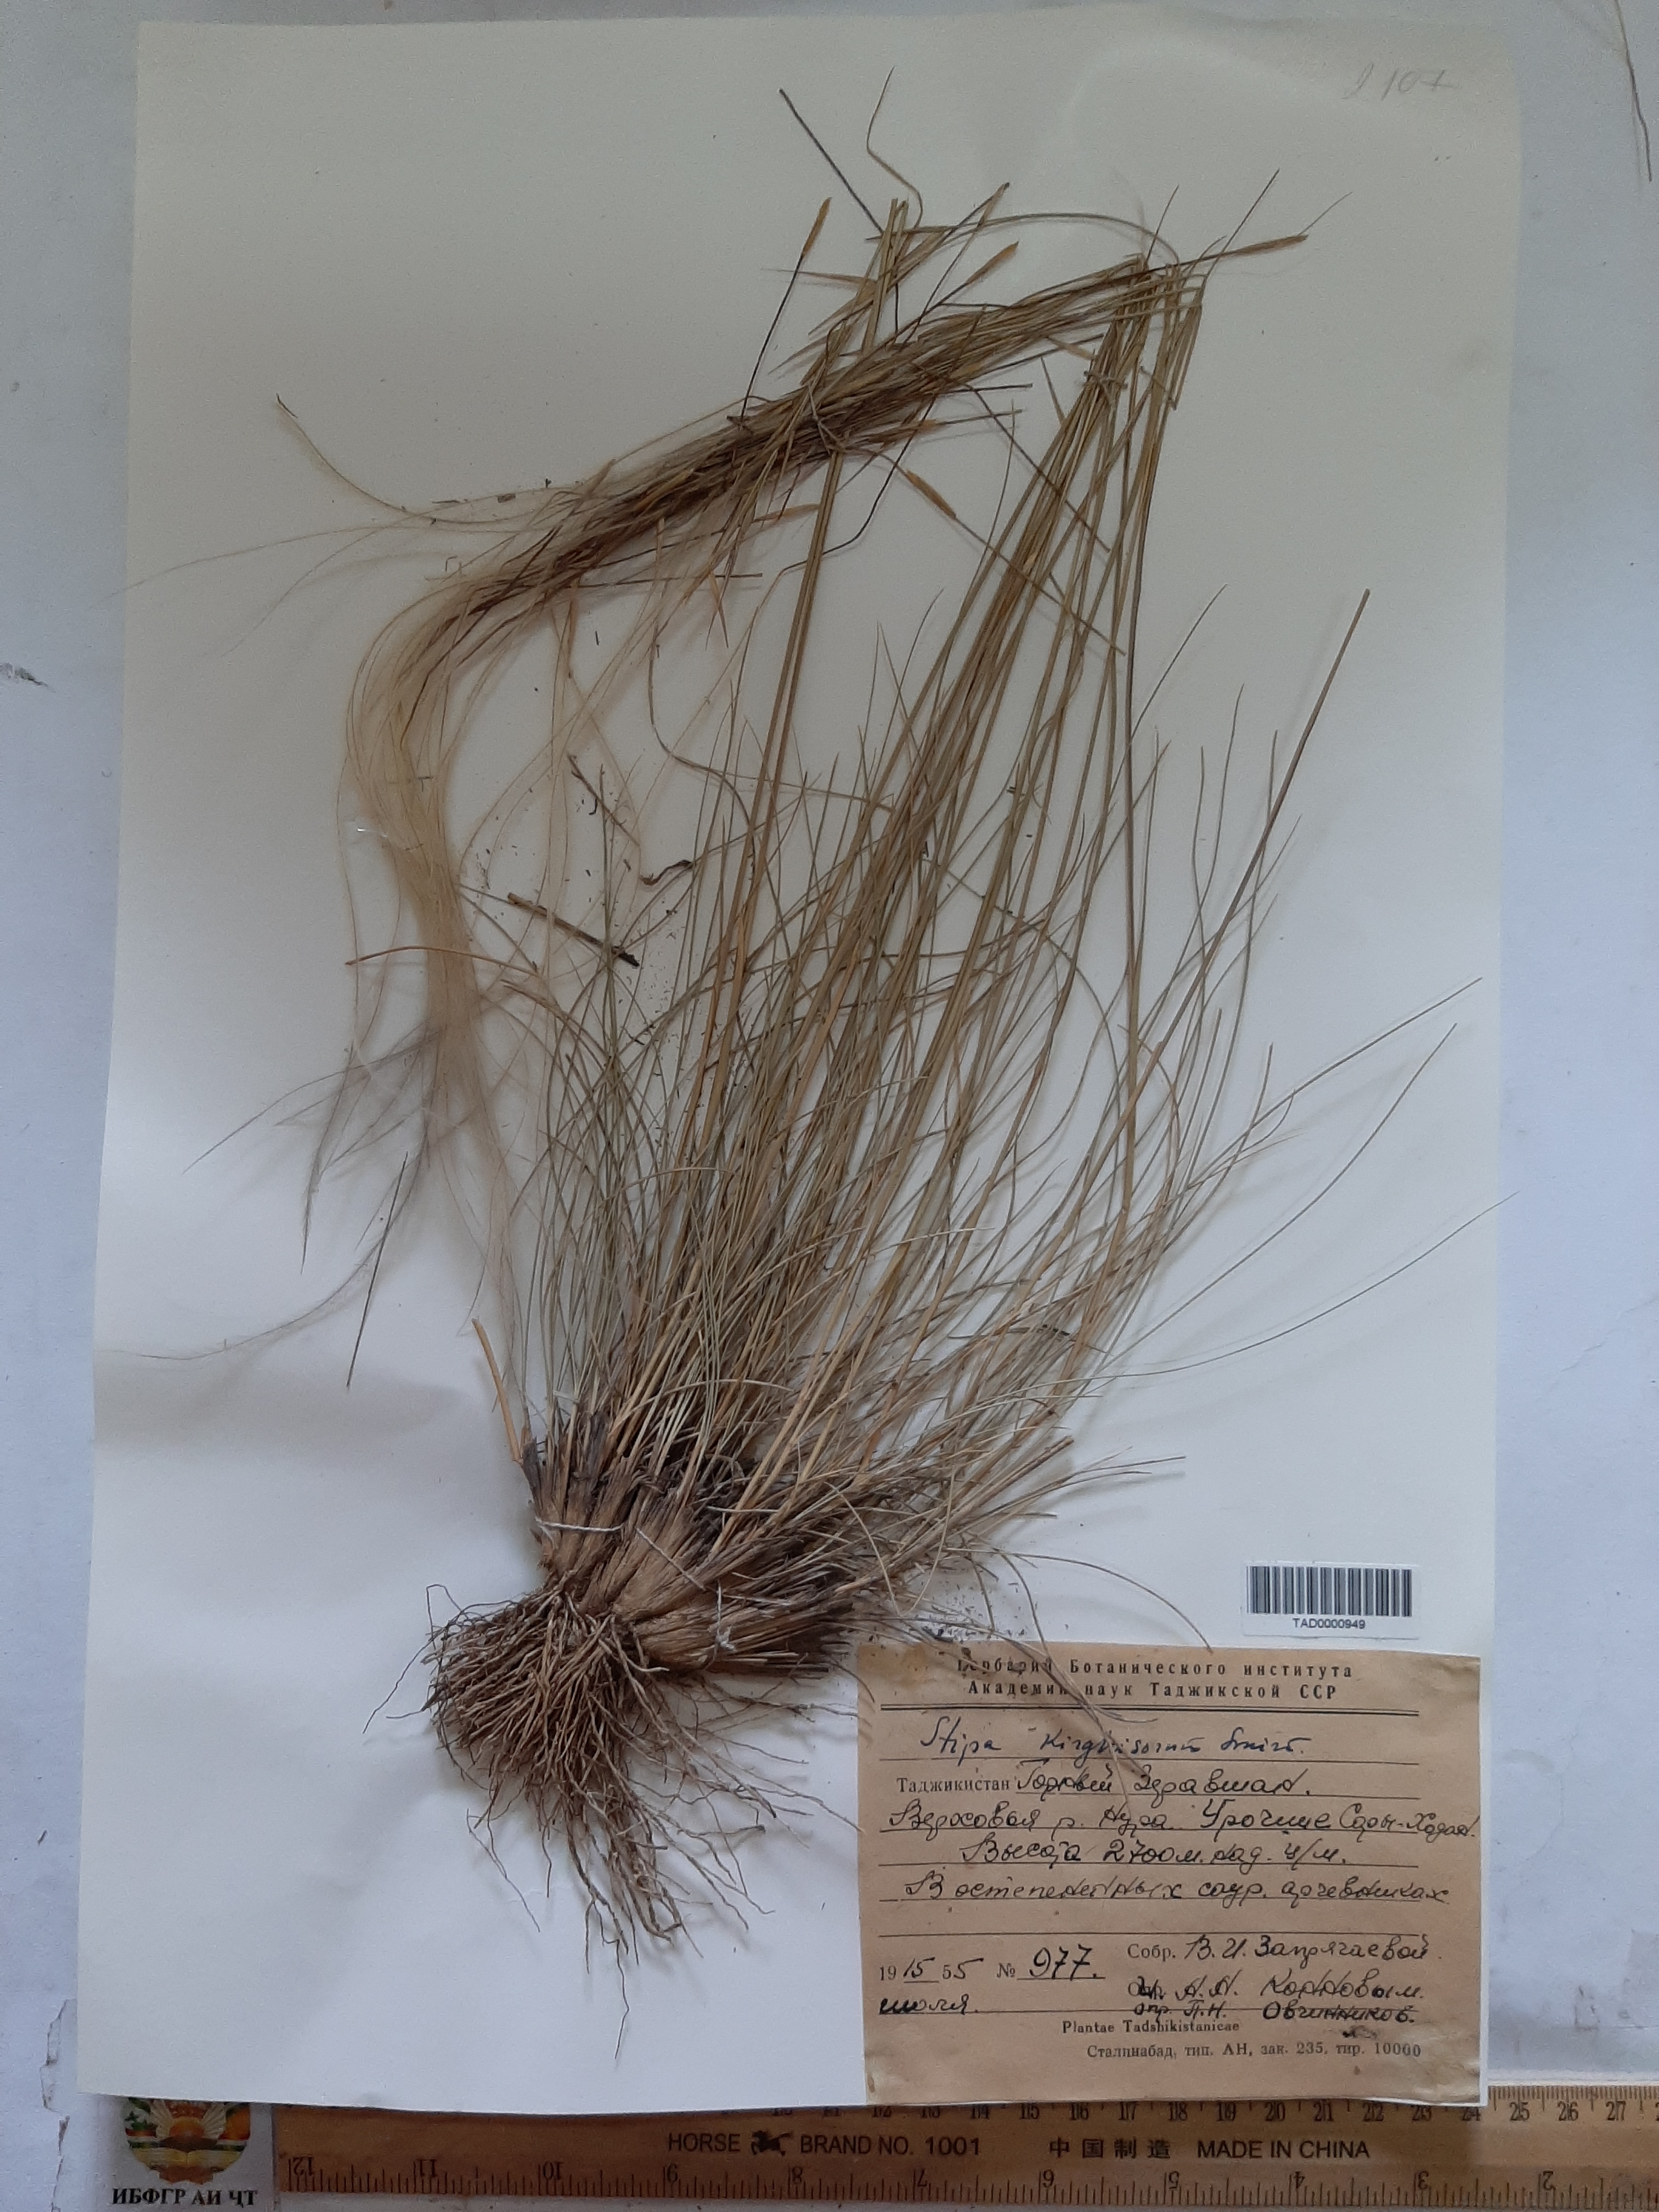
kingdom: Plantae
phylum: Tracheophyta
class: Liliopsida
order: Poales
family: Poaceae
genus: Stipa
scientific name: Stipa kirghisorum
